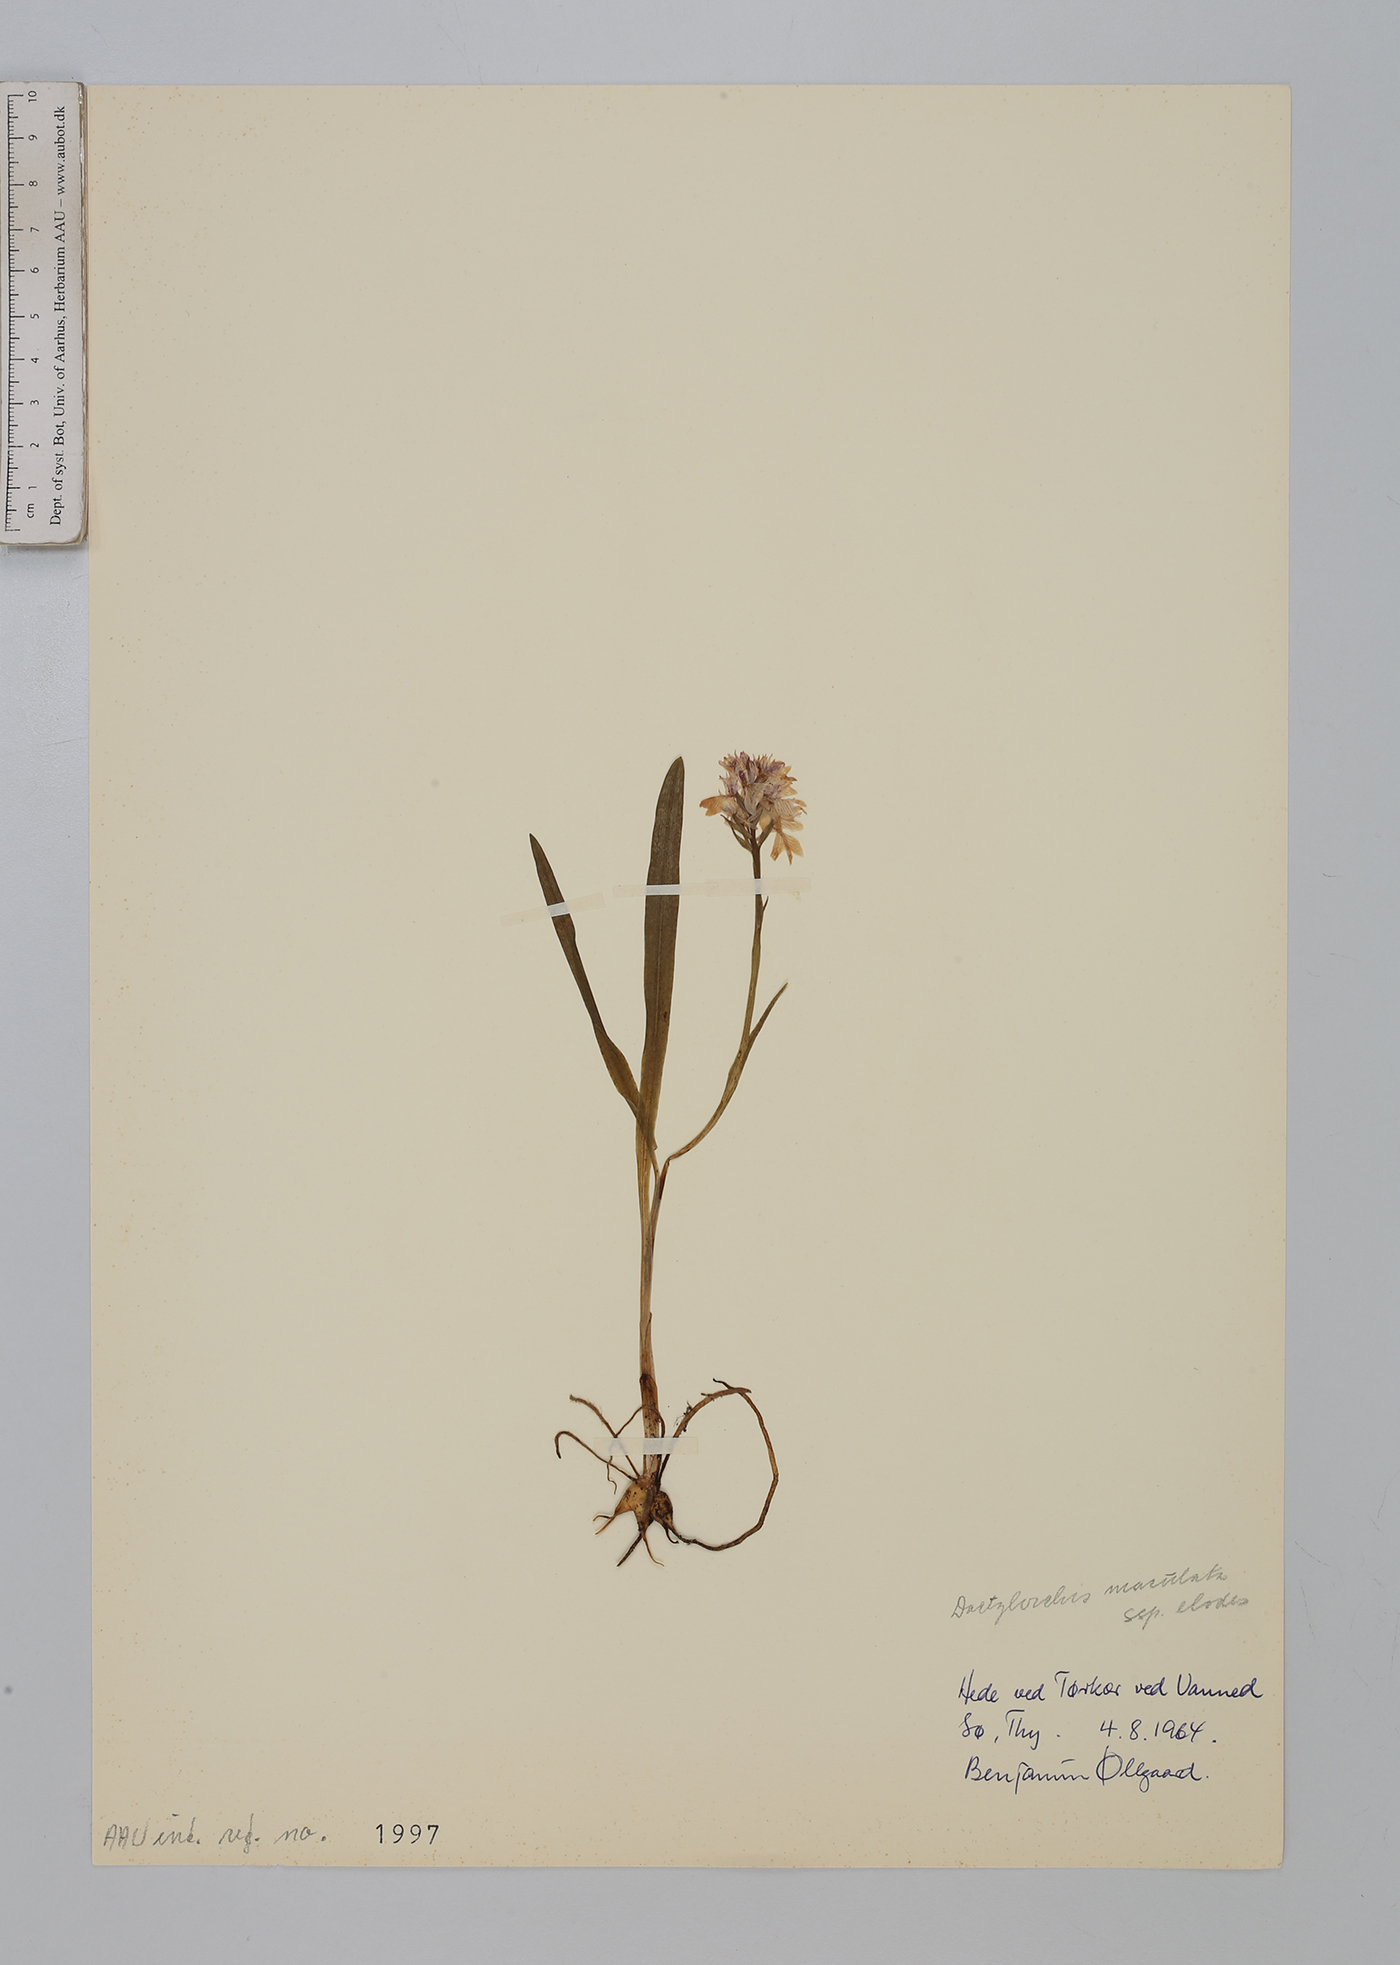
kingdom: Plantae
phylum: Tracheophyta
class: Liliopsida
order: Asparagales
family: Orchidaceae
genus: Dactylorhiza
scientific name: Dactylorhiza maculata
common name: Heath spotted-orchid
